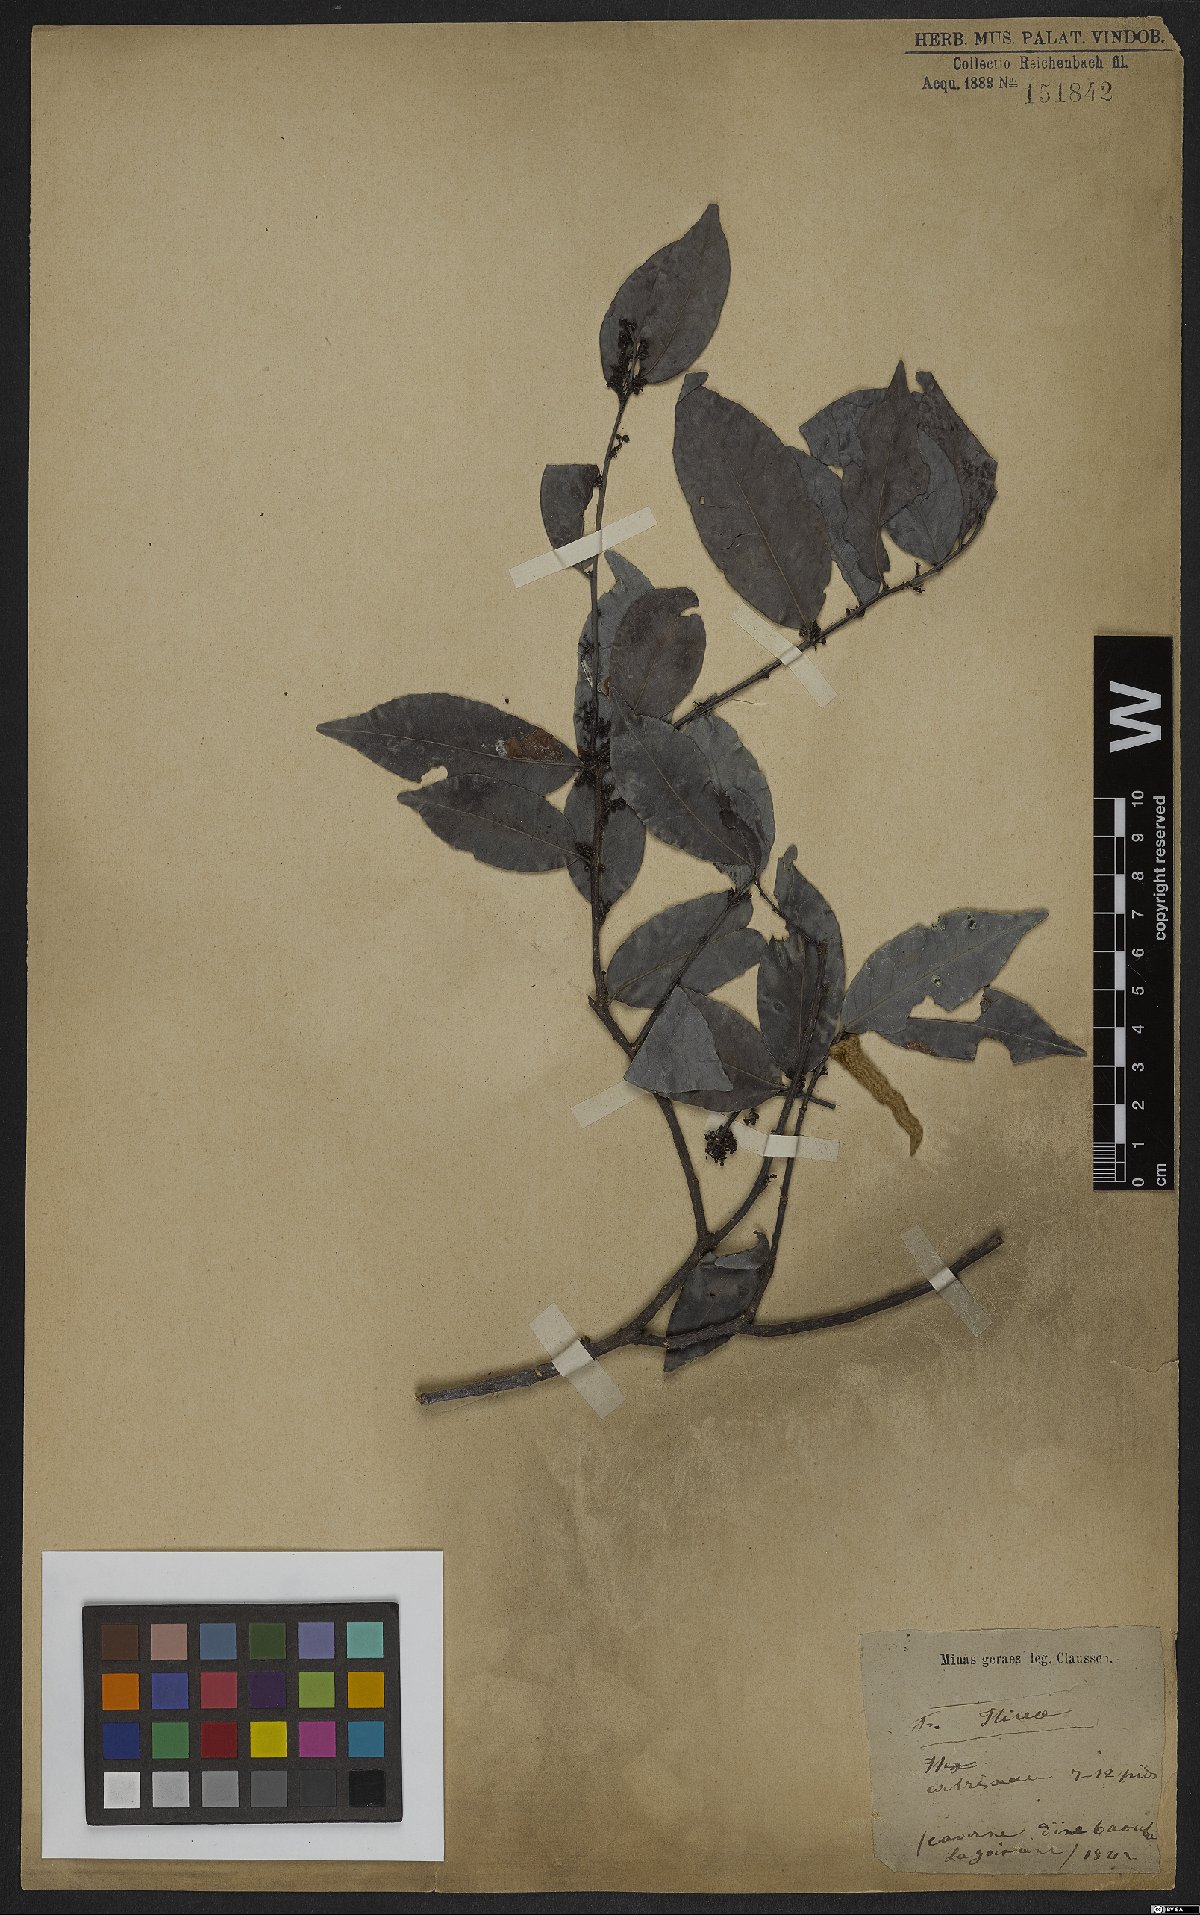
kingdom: Plantae
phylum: Tracheophyta
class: Magnoliopsida
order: Aquifoliales
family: Aquifoliaceae
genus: Ilex
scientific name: Ilex
